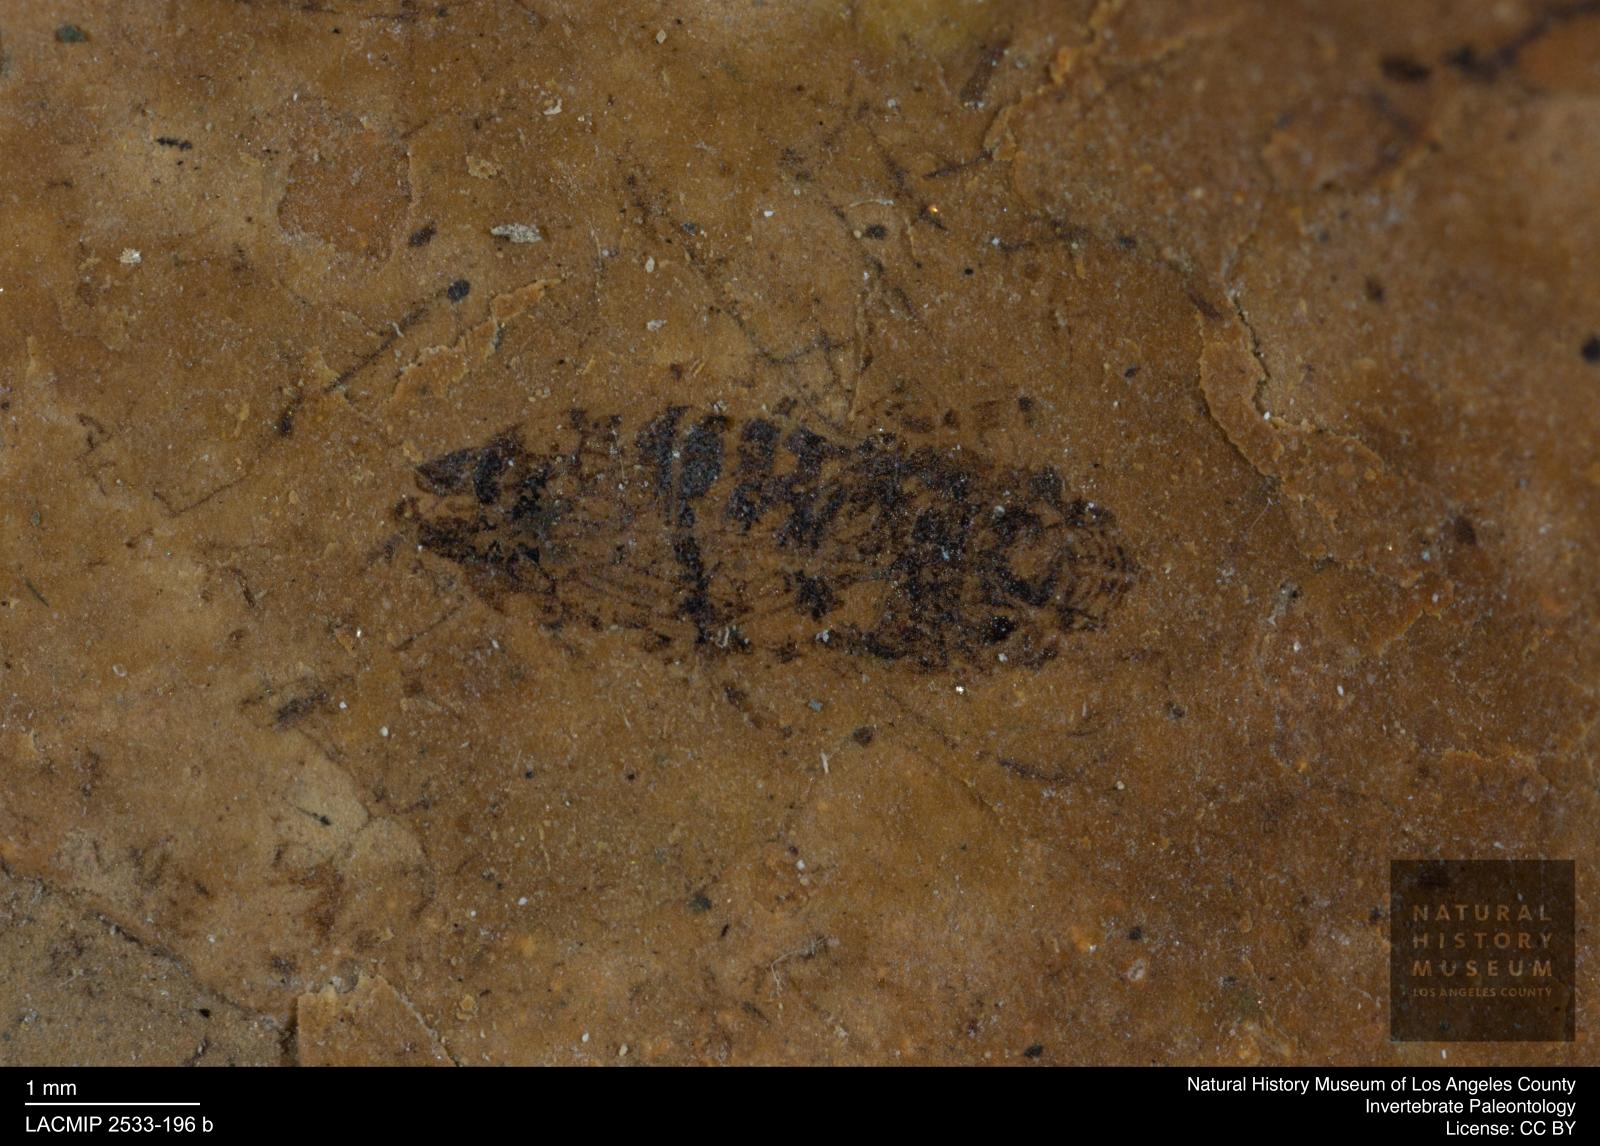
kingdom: Animalia
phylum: Arthropoda
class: Insecta
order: Hemiptera
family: Cicadellidae
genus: Thamnotettix
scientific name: Thamnotettix gracilentus
